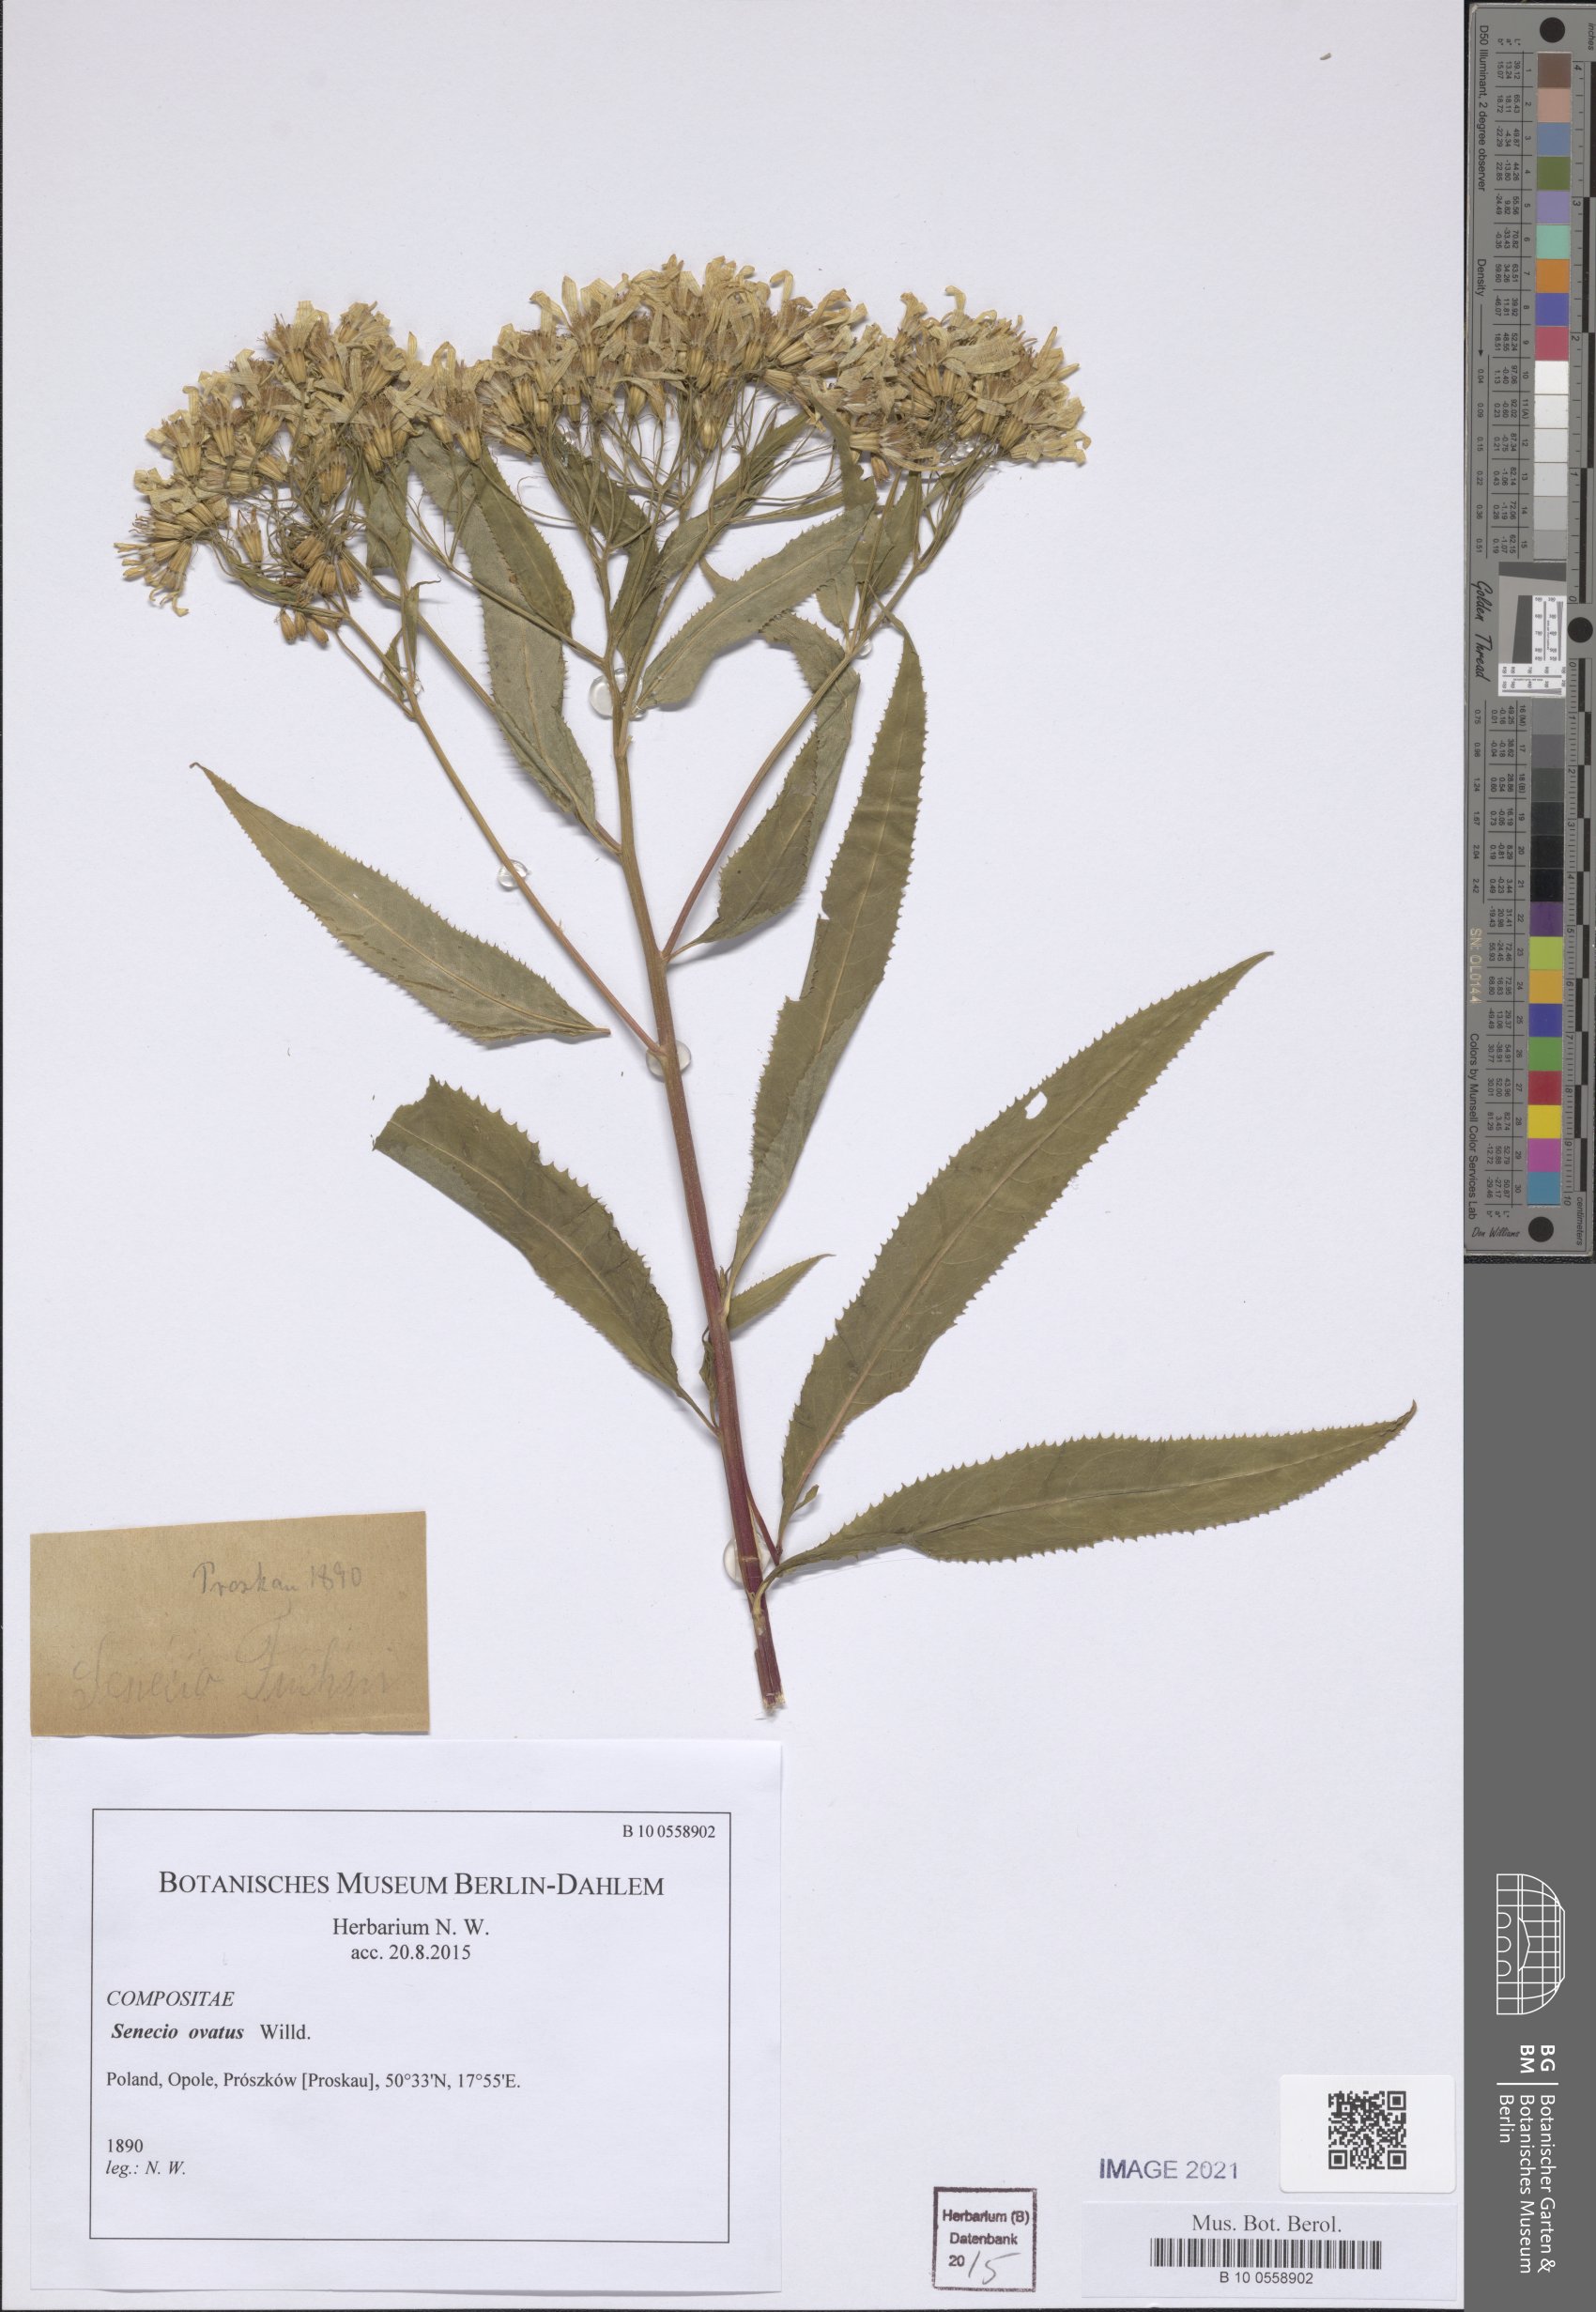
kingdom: Plantae
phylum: Tracheophyta
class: Magnoliopsida
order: Asterales
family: Asteraceae
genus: Senecio
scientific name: Senecio ovatus
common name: Wood ragwort
